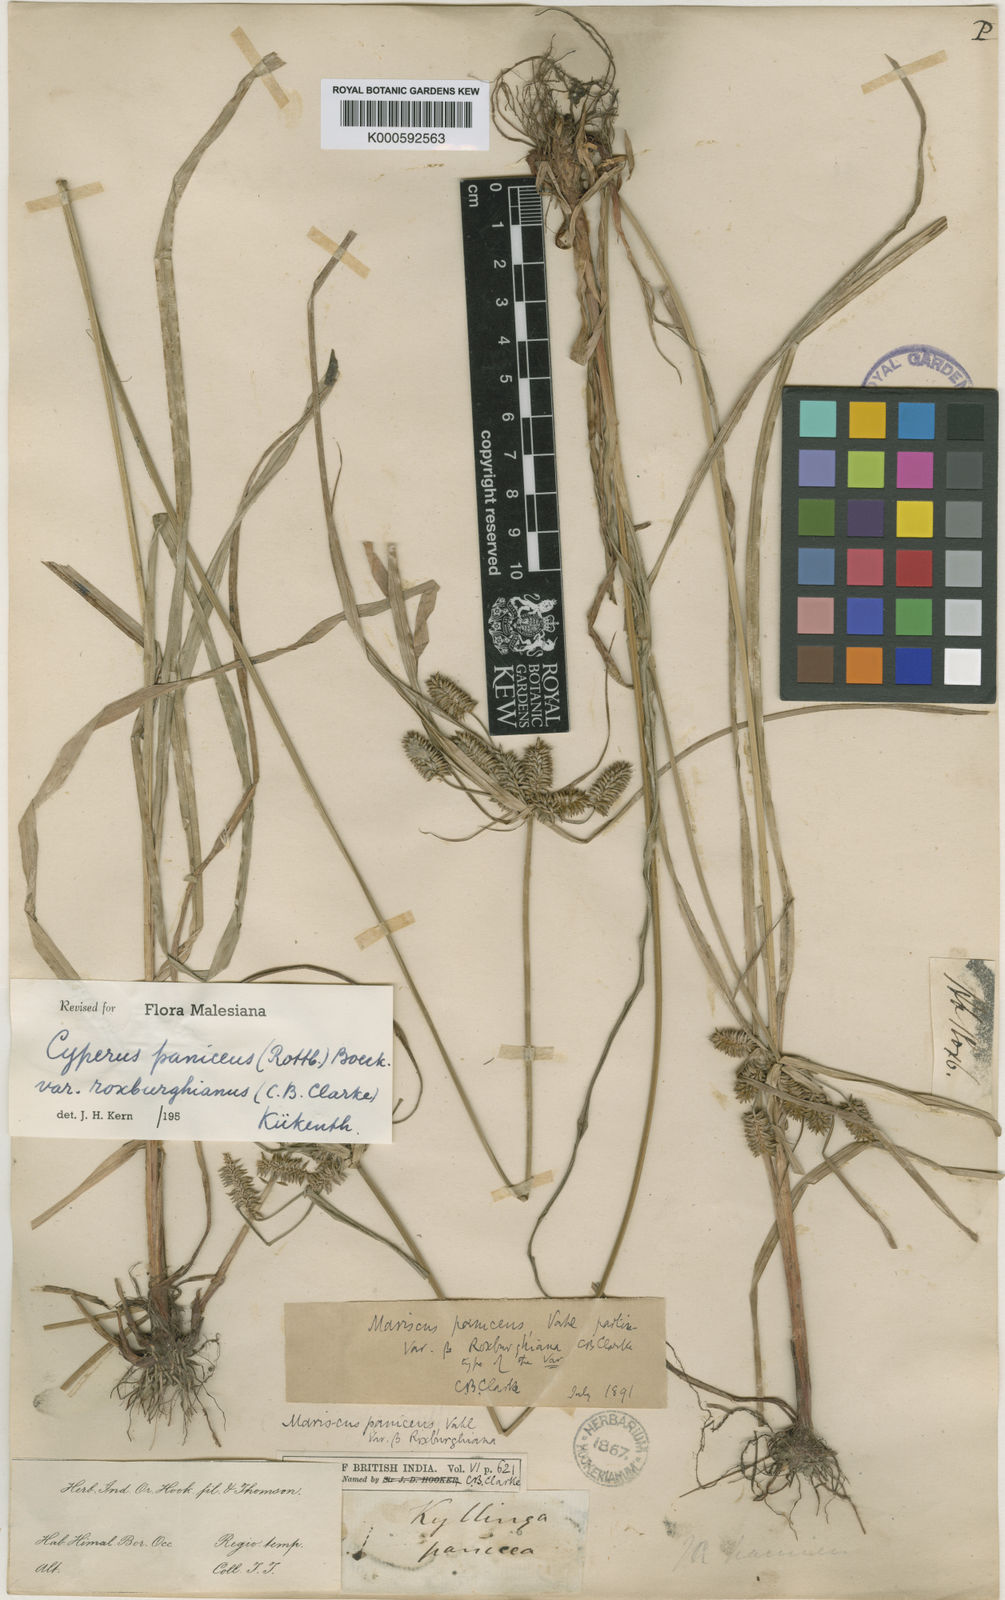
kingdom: Plantae
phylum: Tracheophyta
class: Liliopsida
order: Poales
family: Cyperaceae
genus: Cyperus
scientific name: Cyperus paniceus
